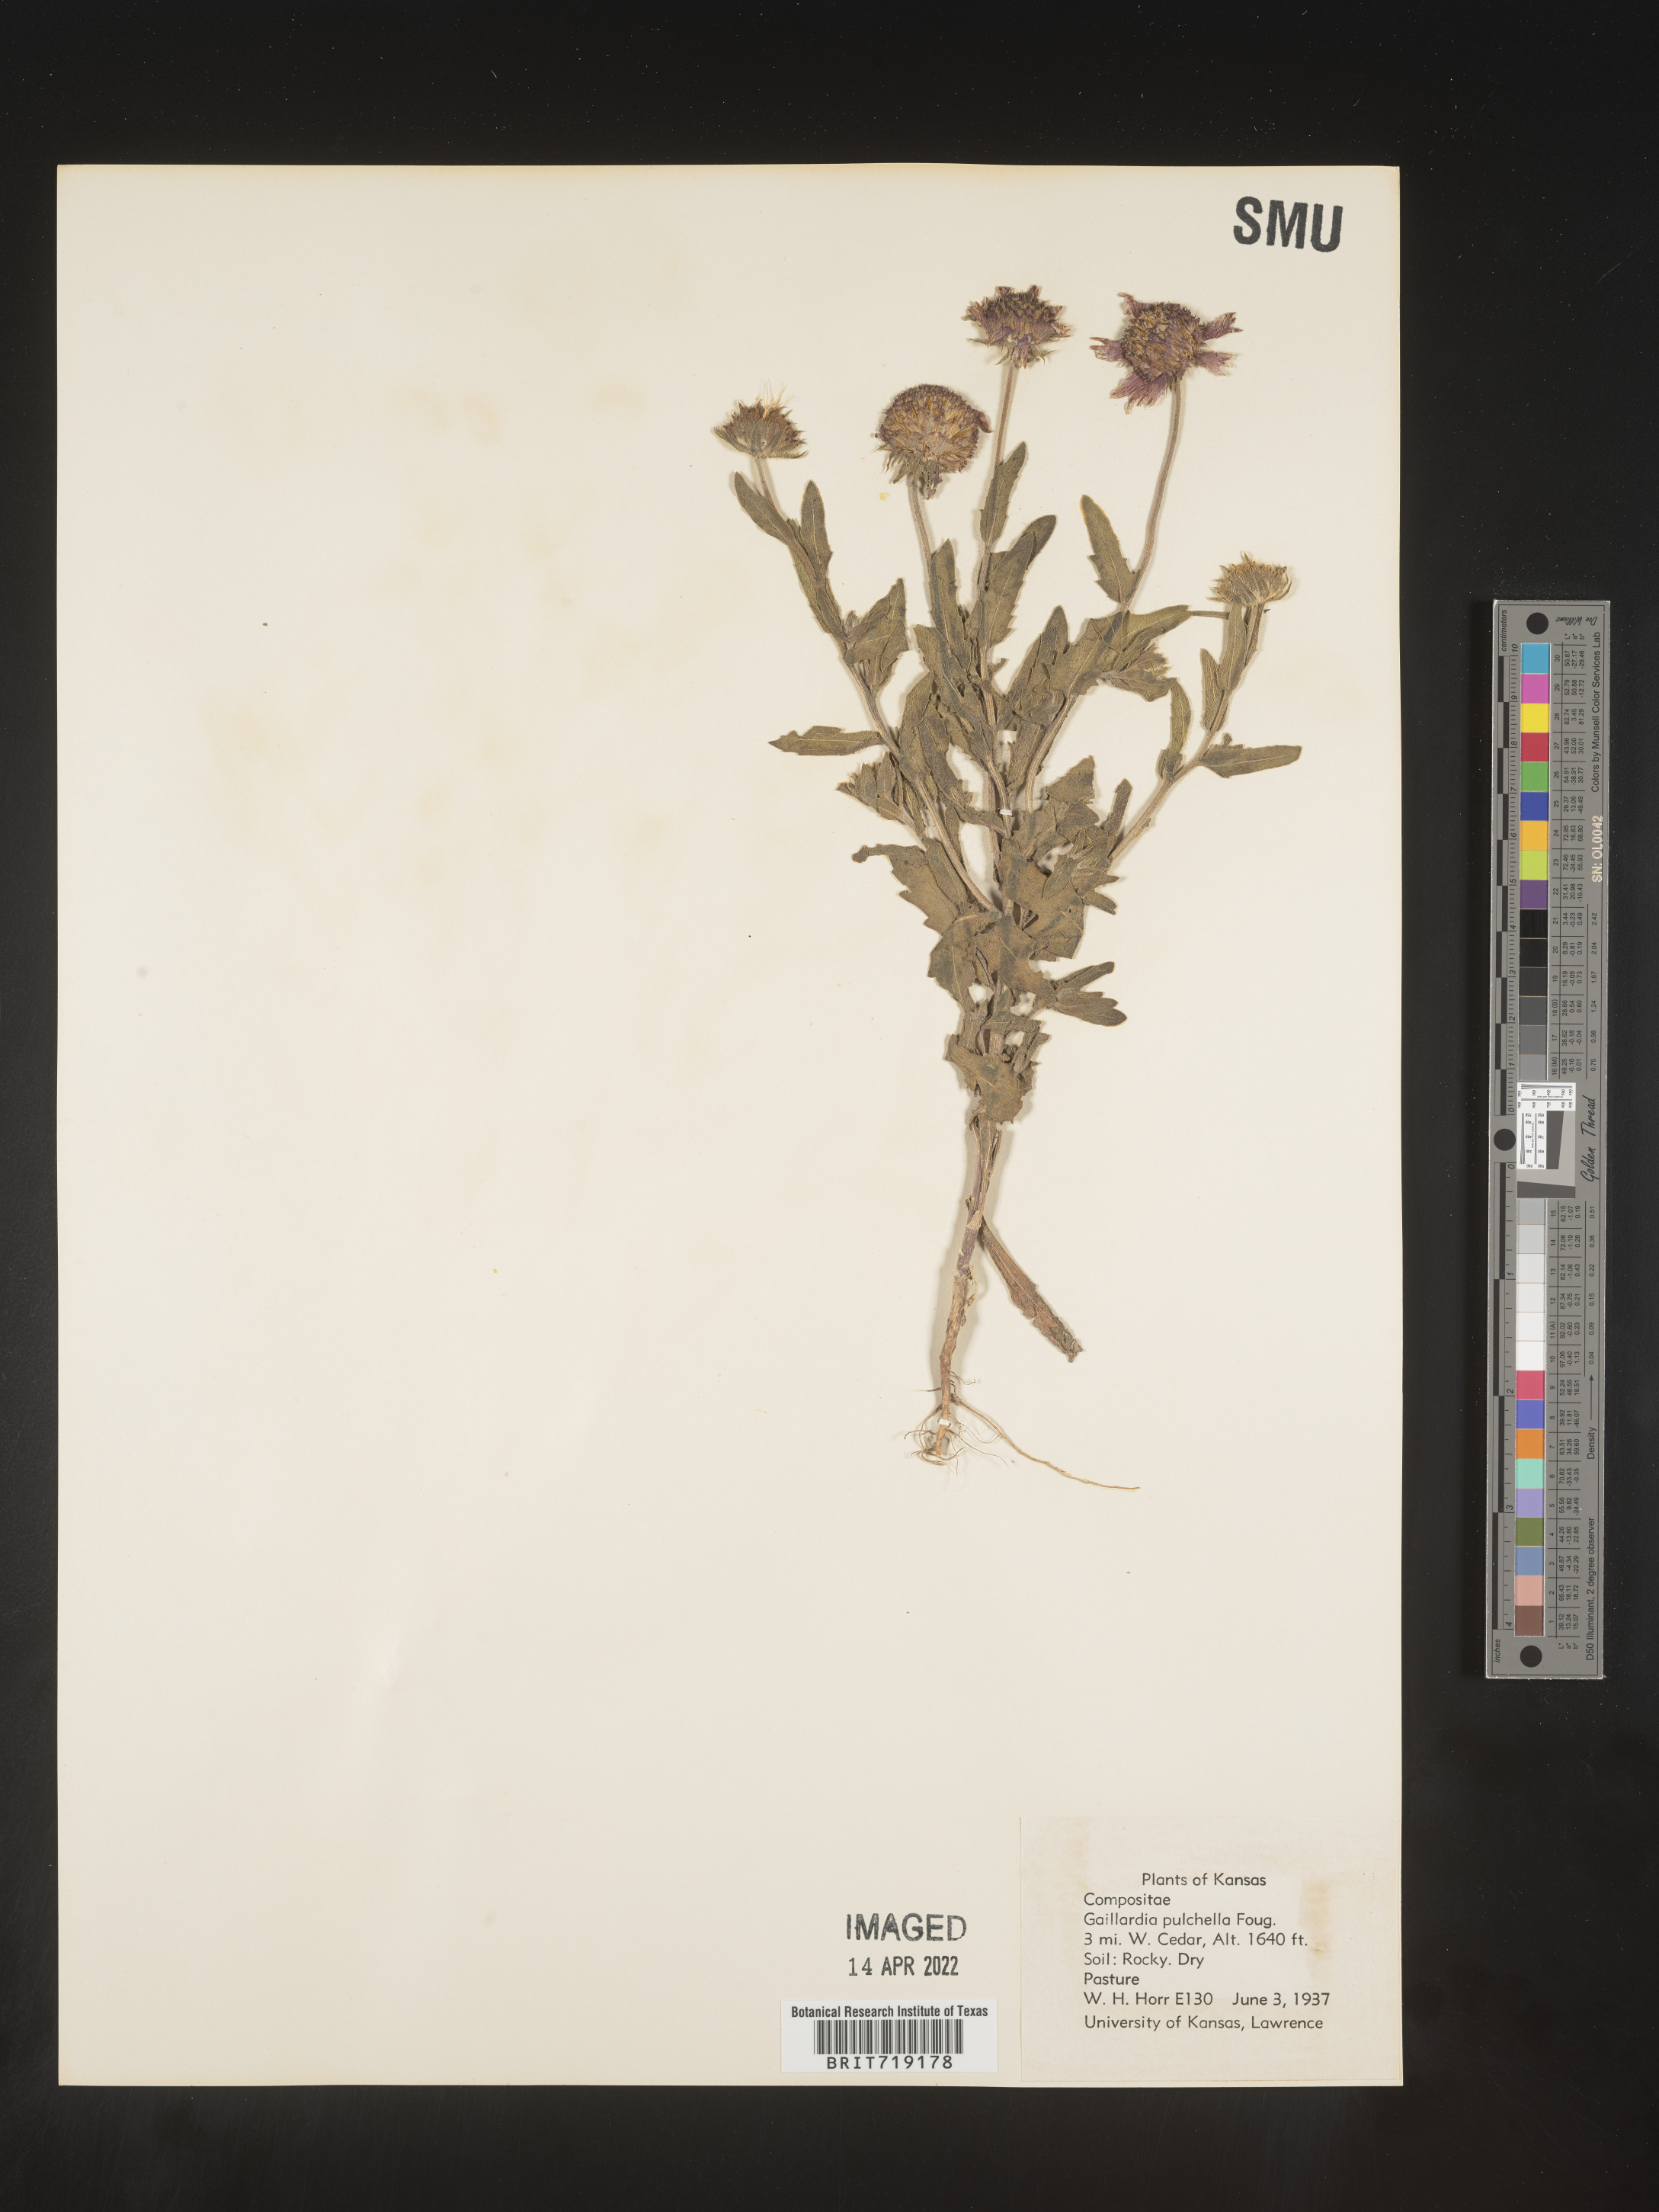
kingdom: Plantae
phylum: Tracheophyta
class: Magnoliopsida
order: Asterales
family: Asteraceae
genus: Gaillardia
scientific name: Gaillardia pulchella
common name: Firewheel
